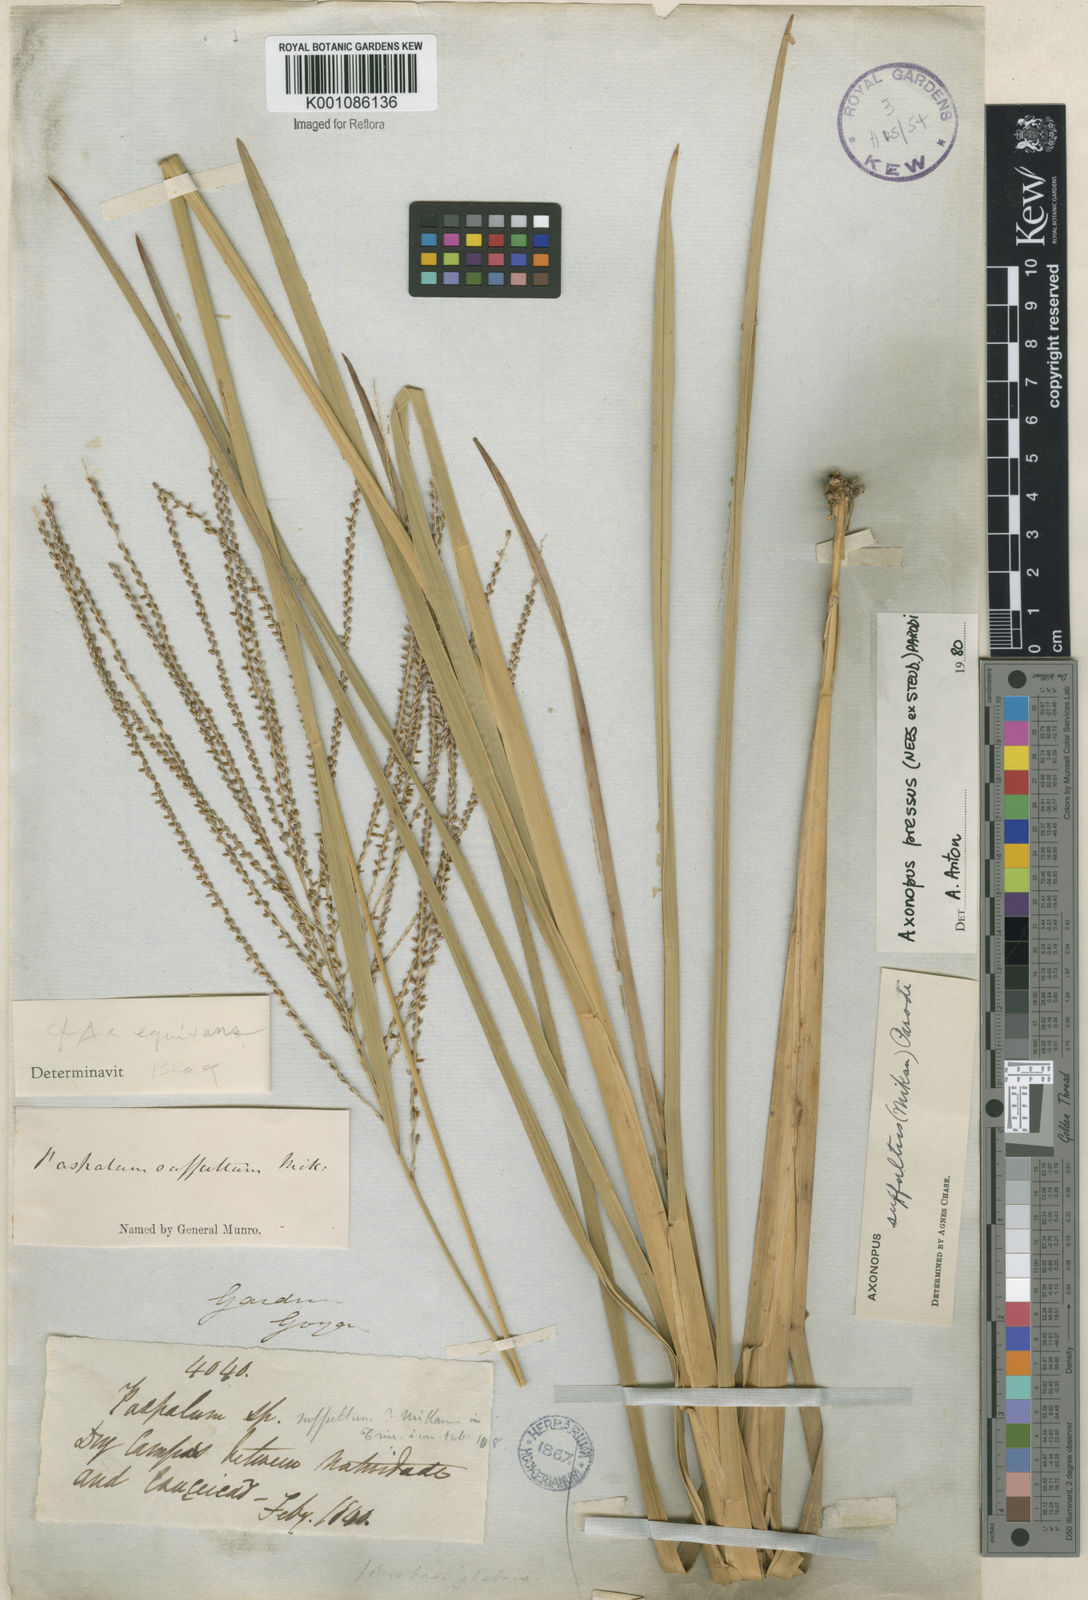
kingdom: Plantae
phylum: Tracheophyta
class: Liliopsida
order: Poales
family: Poaceae
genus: Axonopus
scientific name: Axonopus pressus
